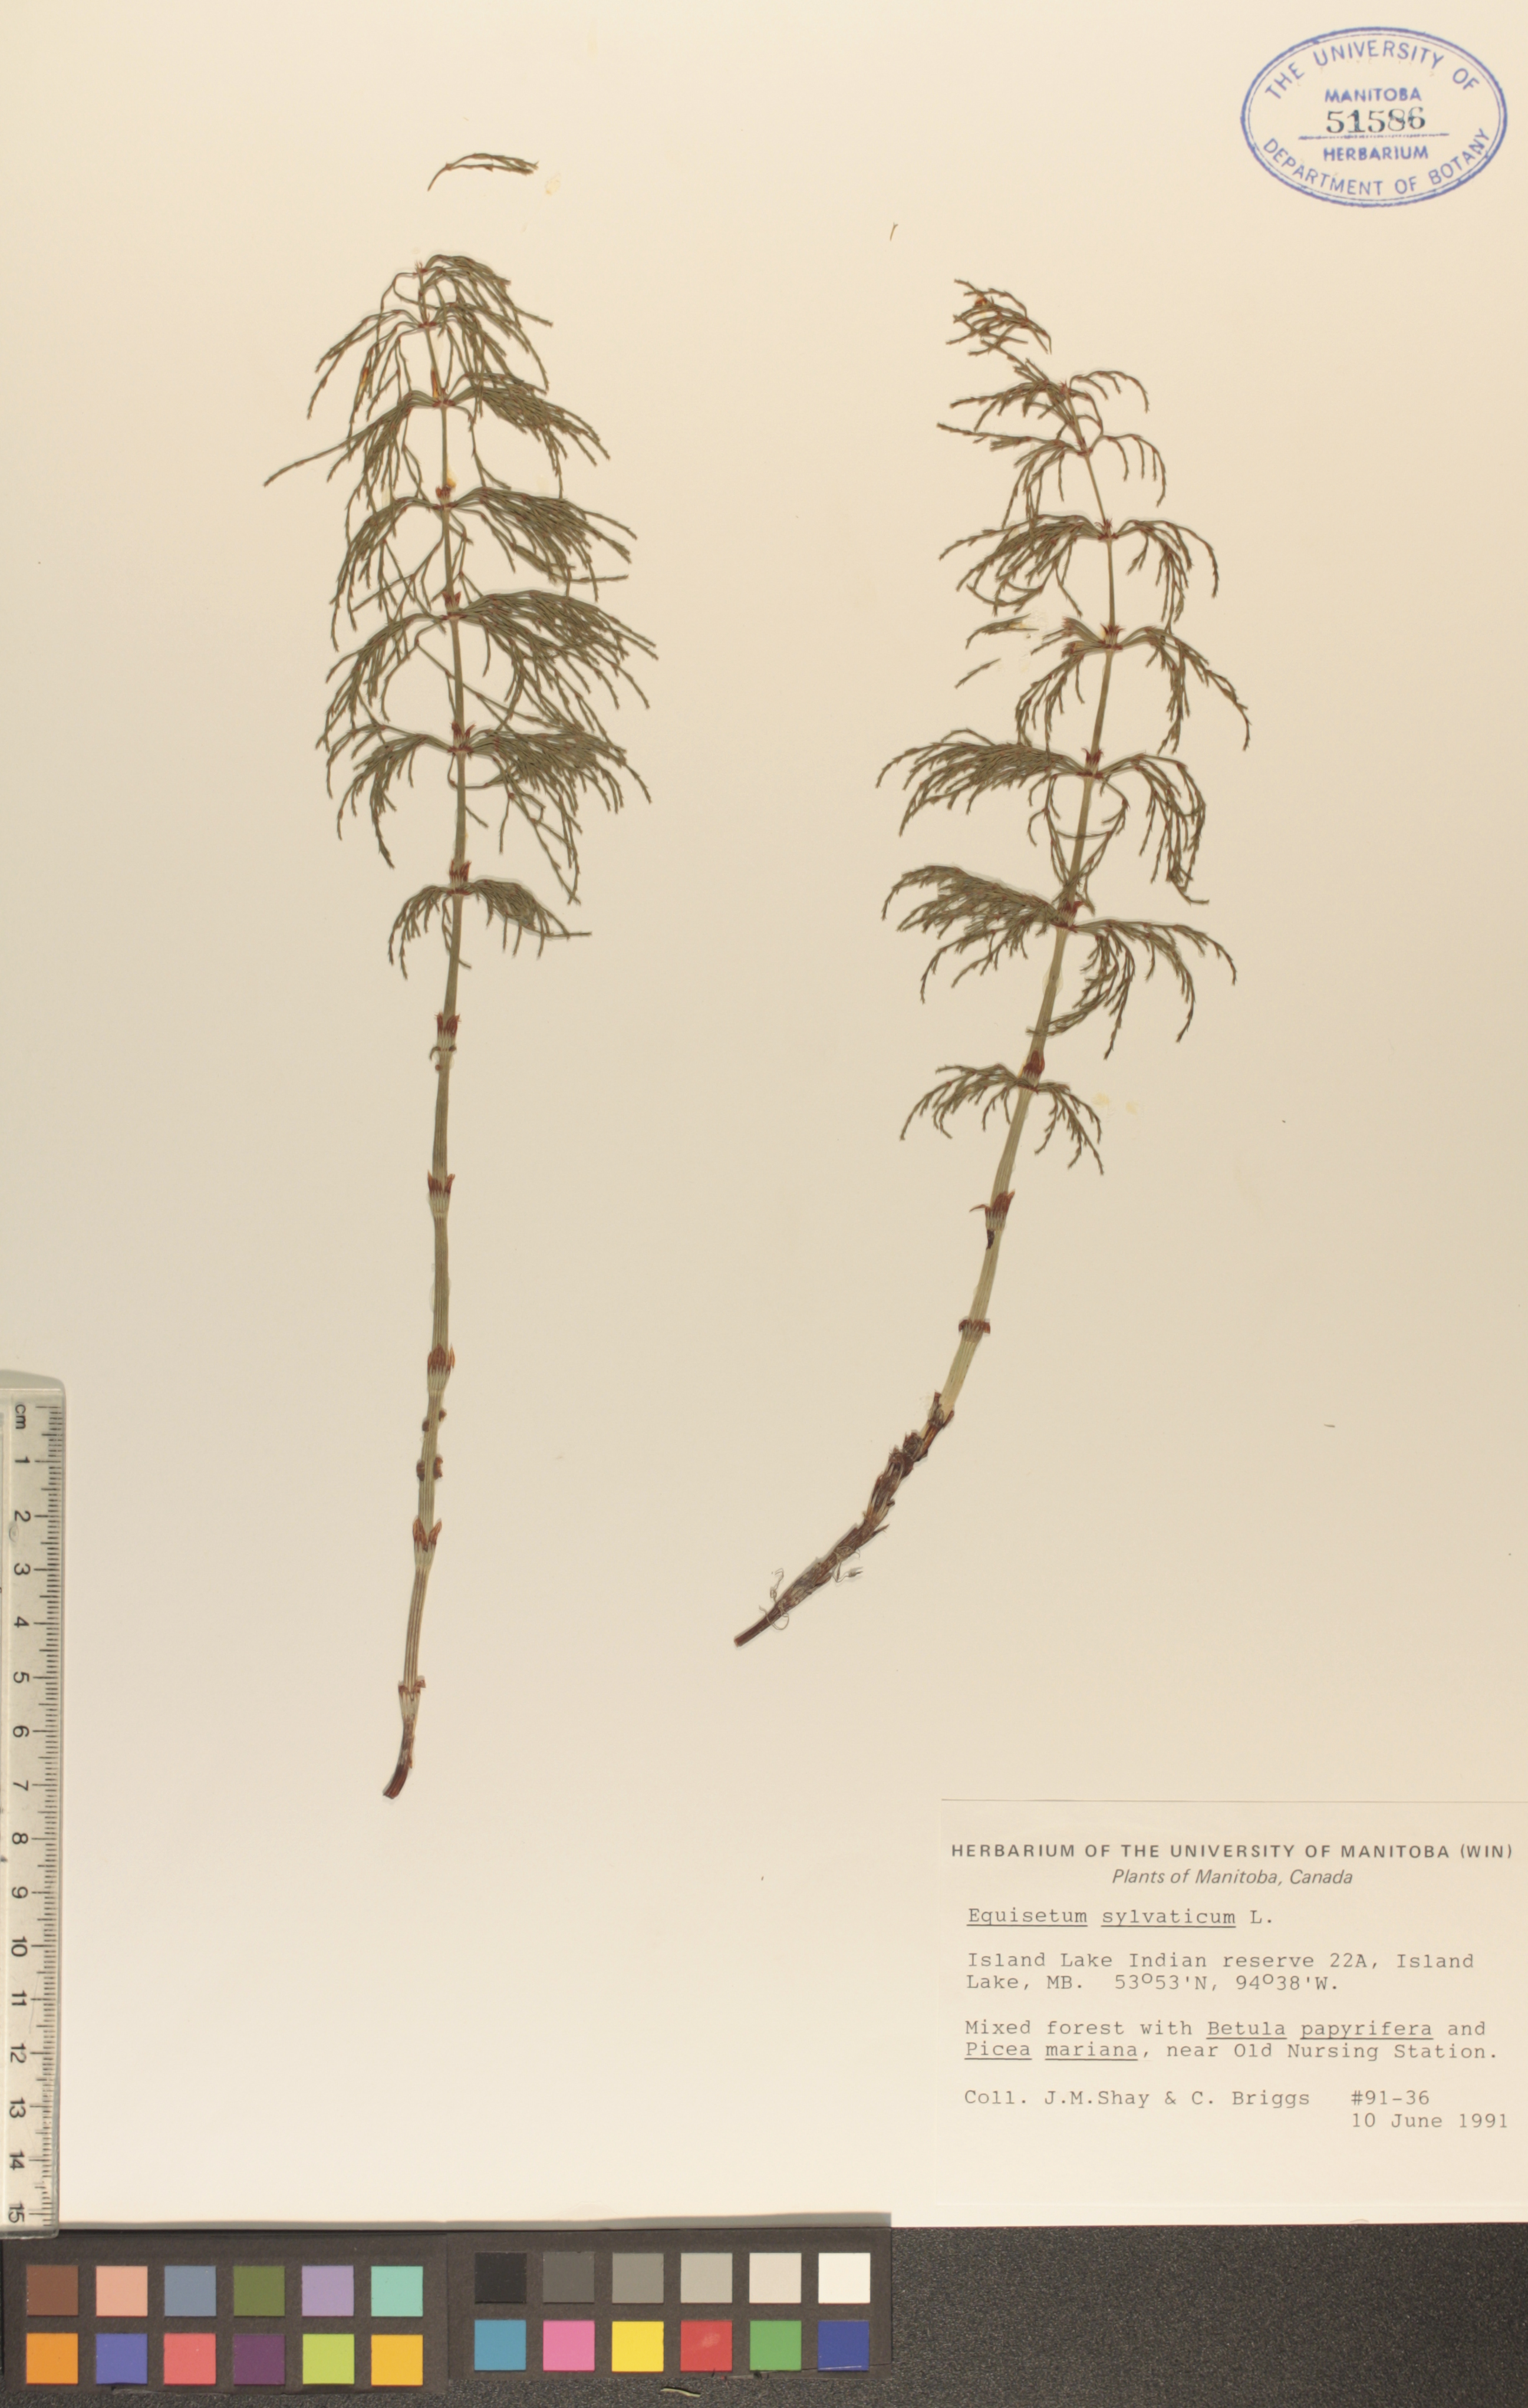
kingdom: Plantae
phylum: Tracheophyta
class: Polypodiopsida
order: Equisetales
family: Equisetaceae
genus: Equisetum
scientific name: Equisetum sylvaticum
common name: Wood horsetail
